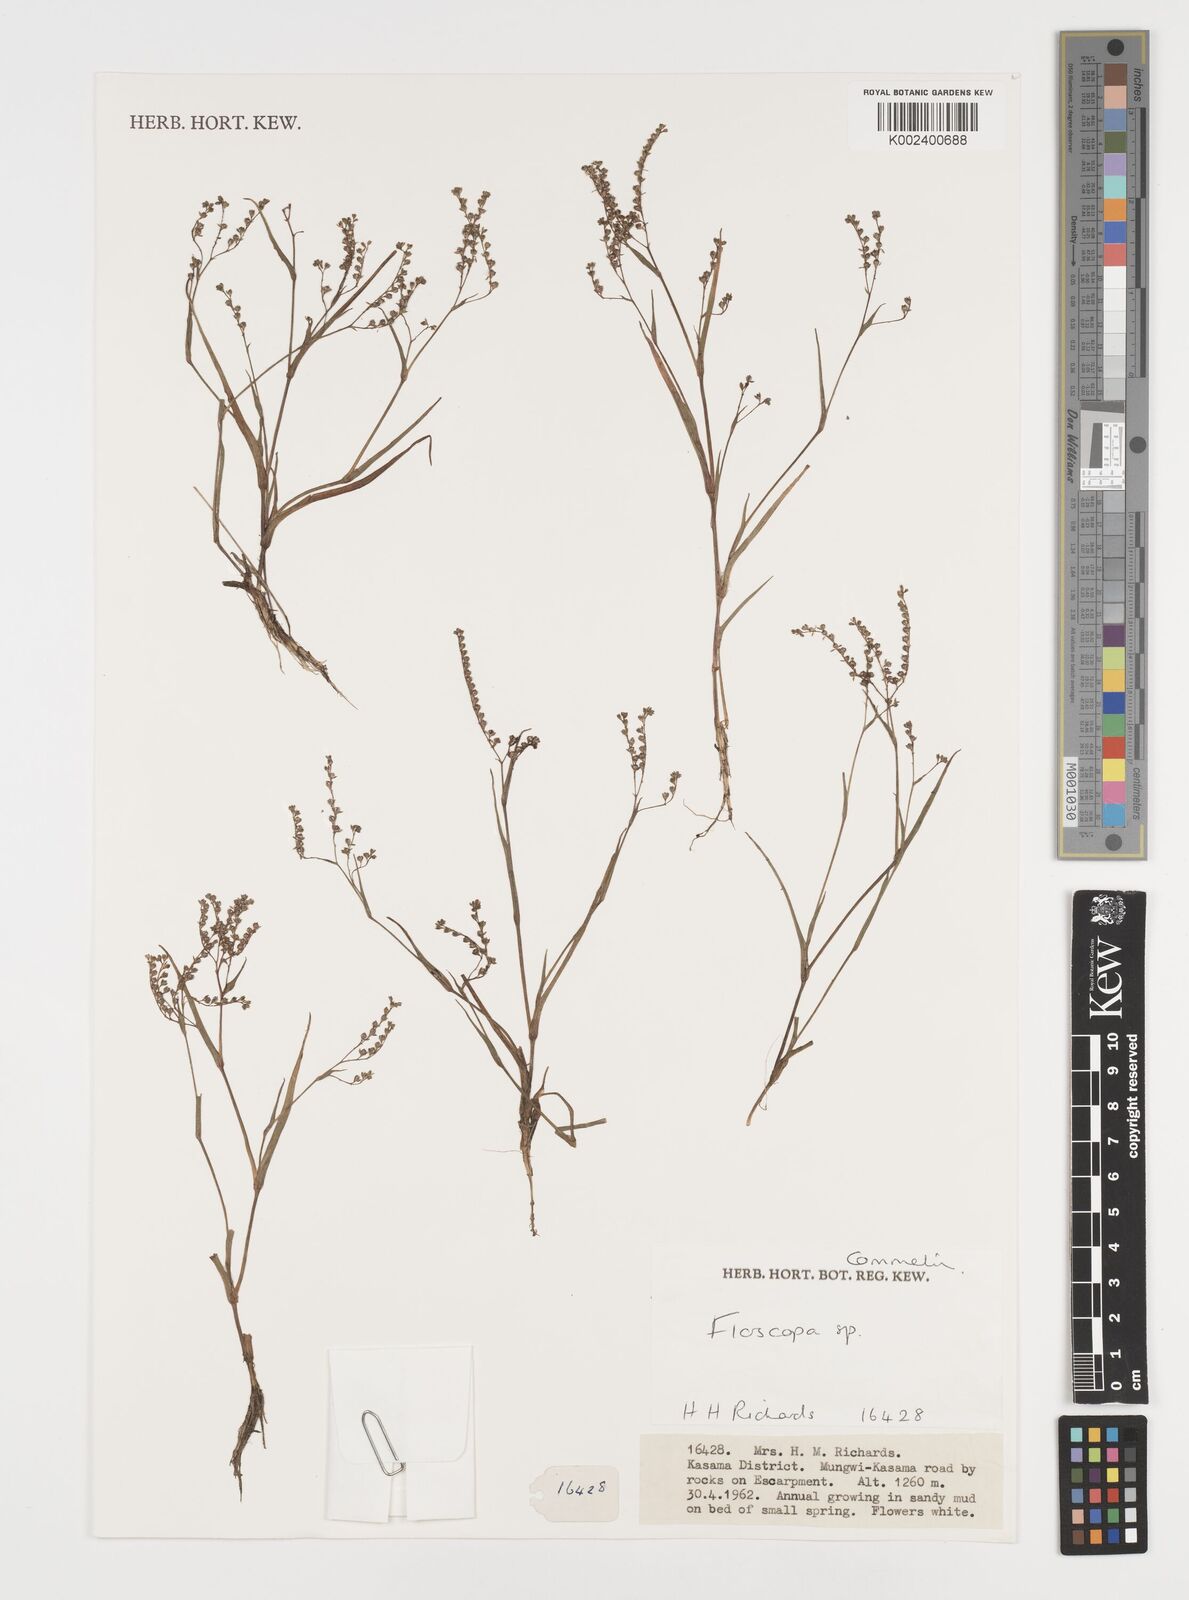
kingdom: Plantae
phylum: Tracheophyta
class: Liliopsida
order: Commelinales
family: Commelinaceae
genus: Floscopa
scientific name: Floscopa
